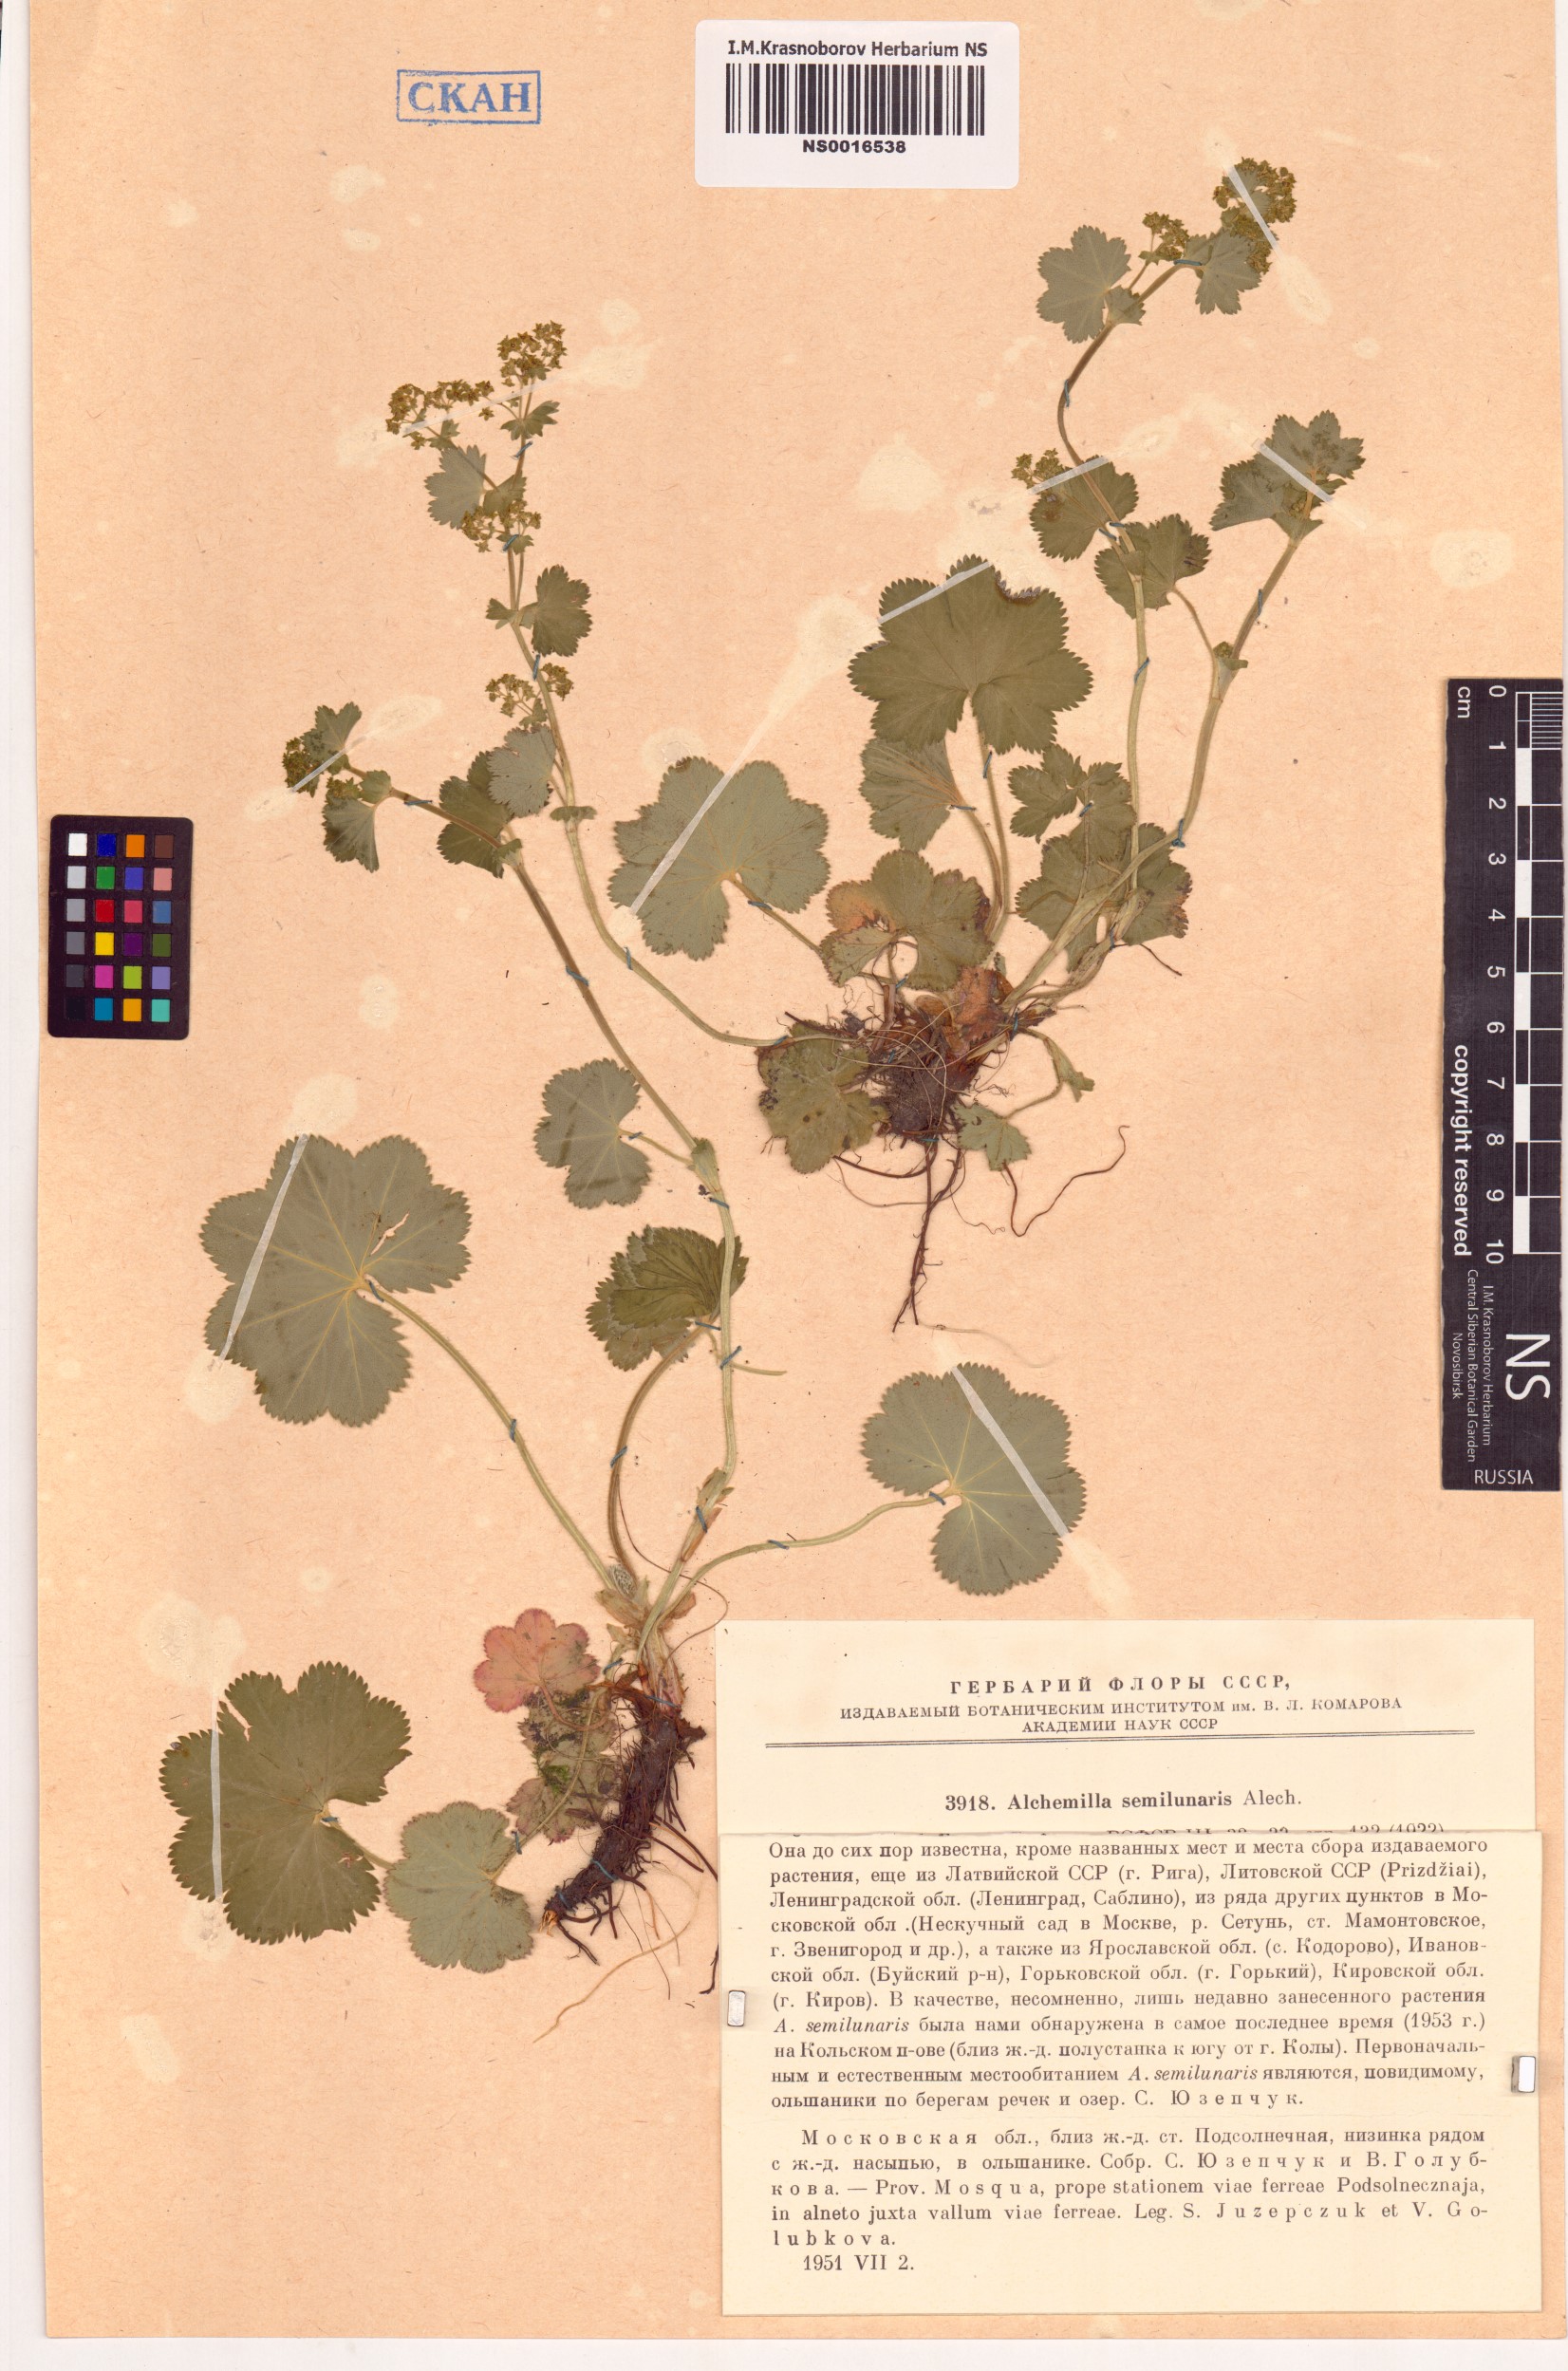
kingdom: Plantae
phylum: Tracheophyta
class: Magnoliopsida
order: Rosales
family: Rosaceae
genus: Alchemilla
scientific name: Alchemilla semilunaris
